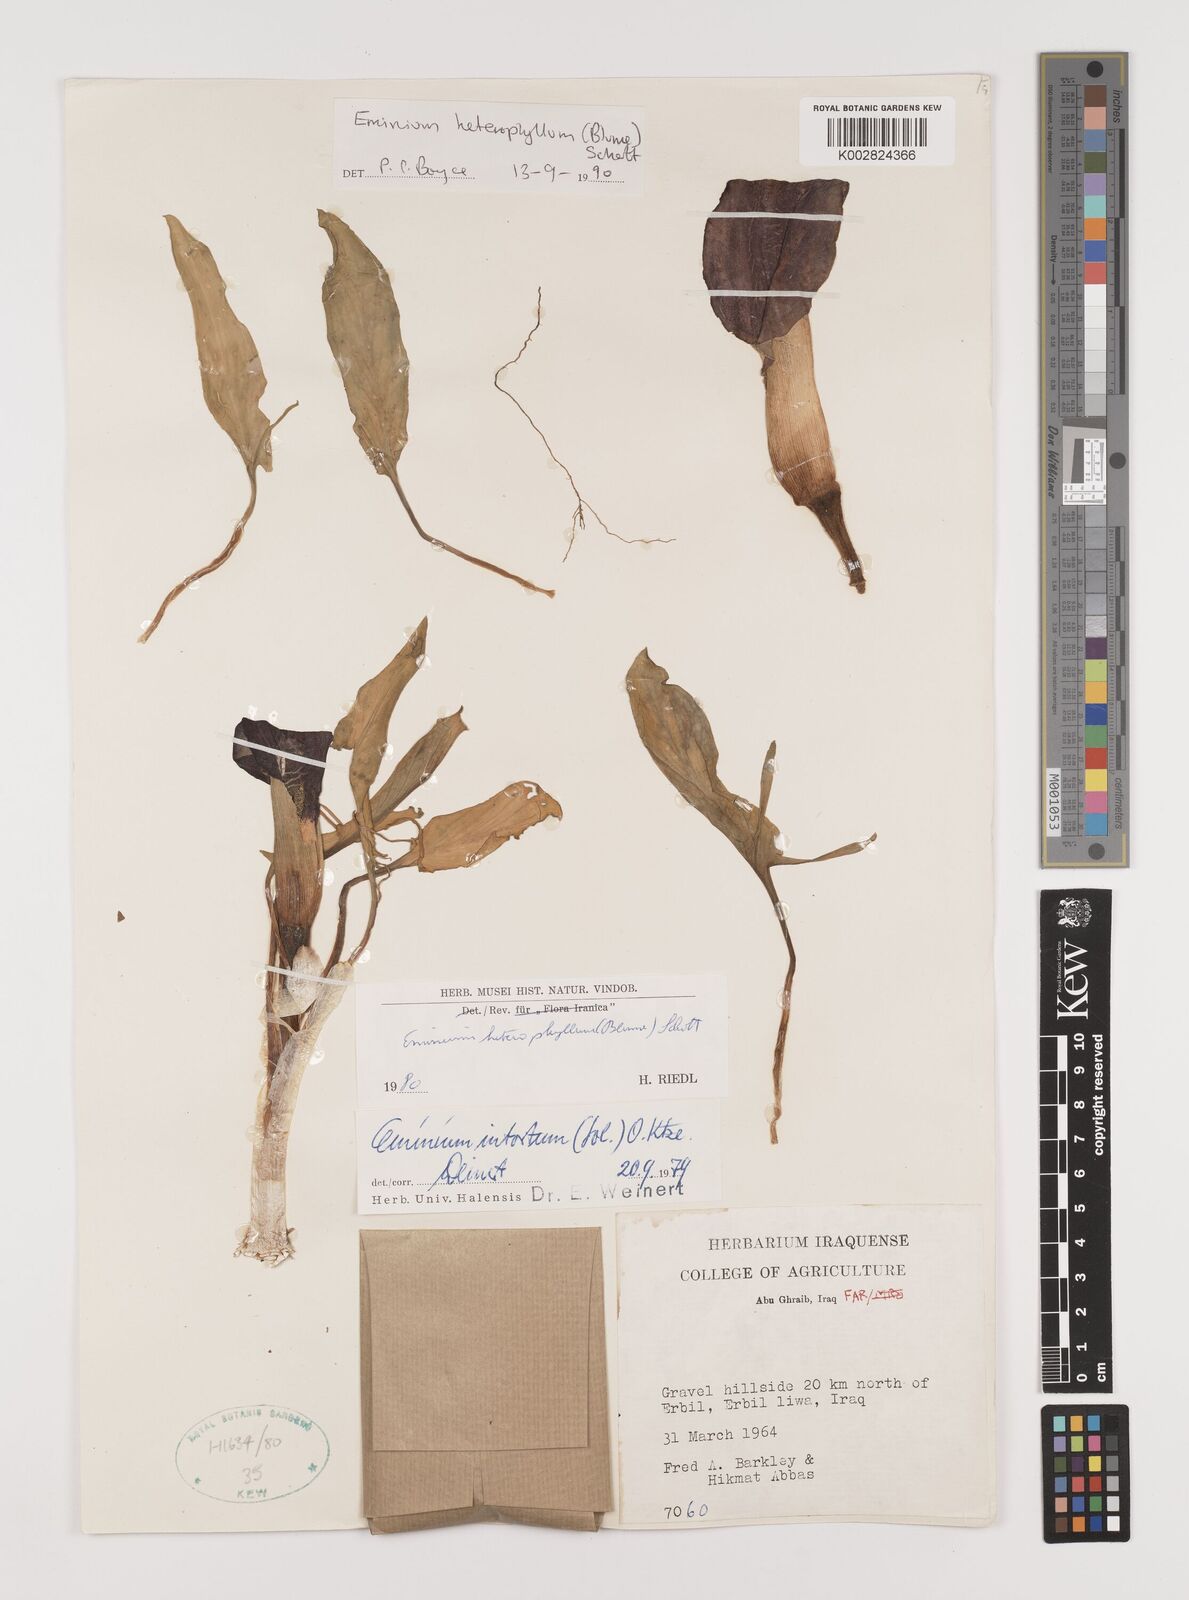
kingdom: Plantae
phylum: Tracheophyta
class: Liliopsida
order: Alismatales
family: Araceae
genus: Eminium
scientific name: Eminium rauwolffii
